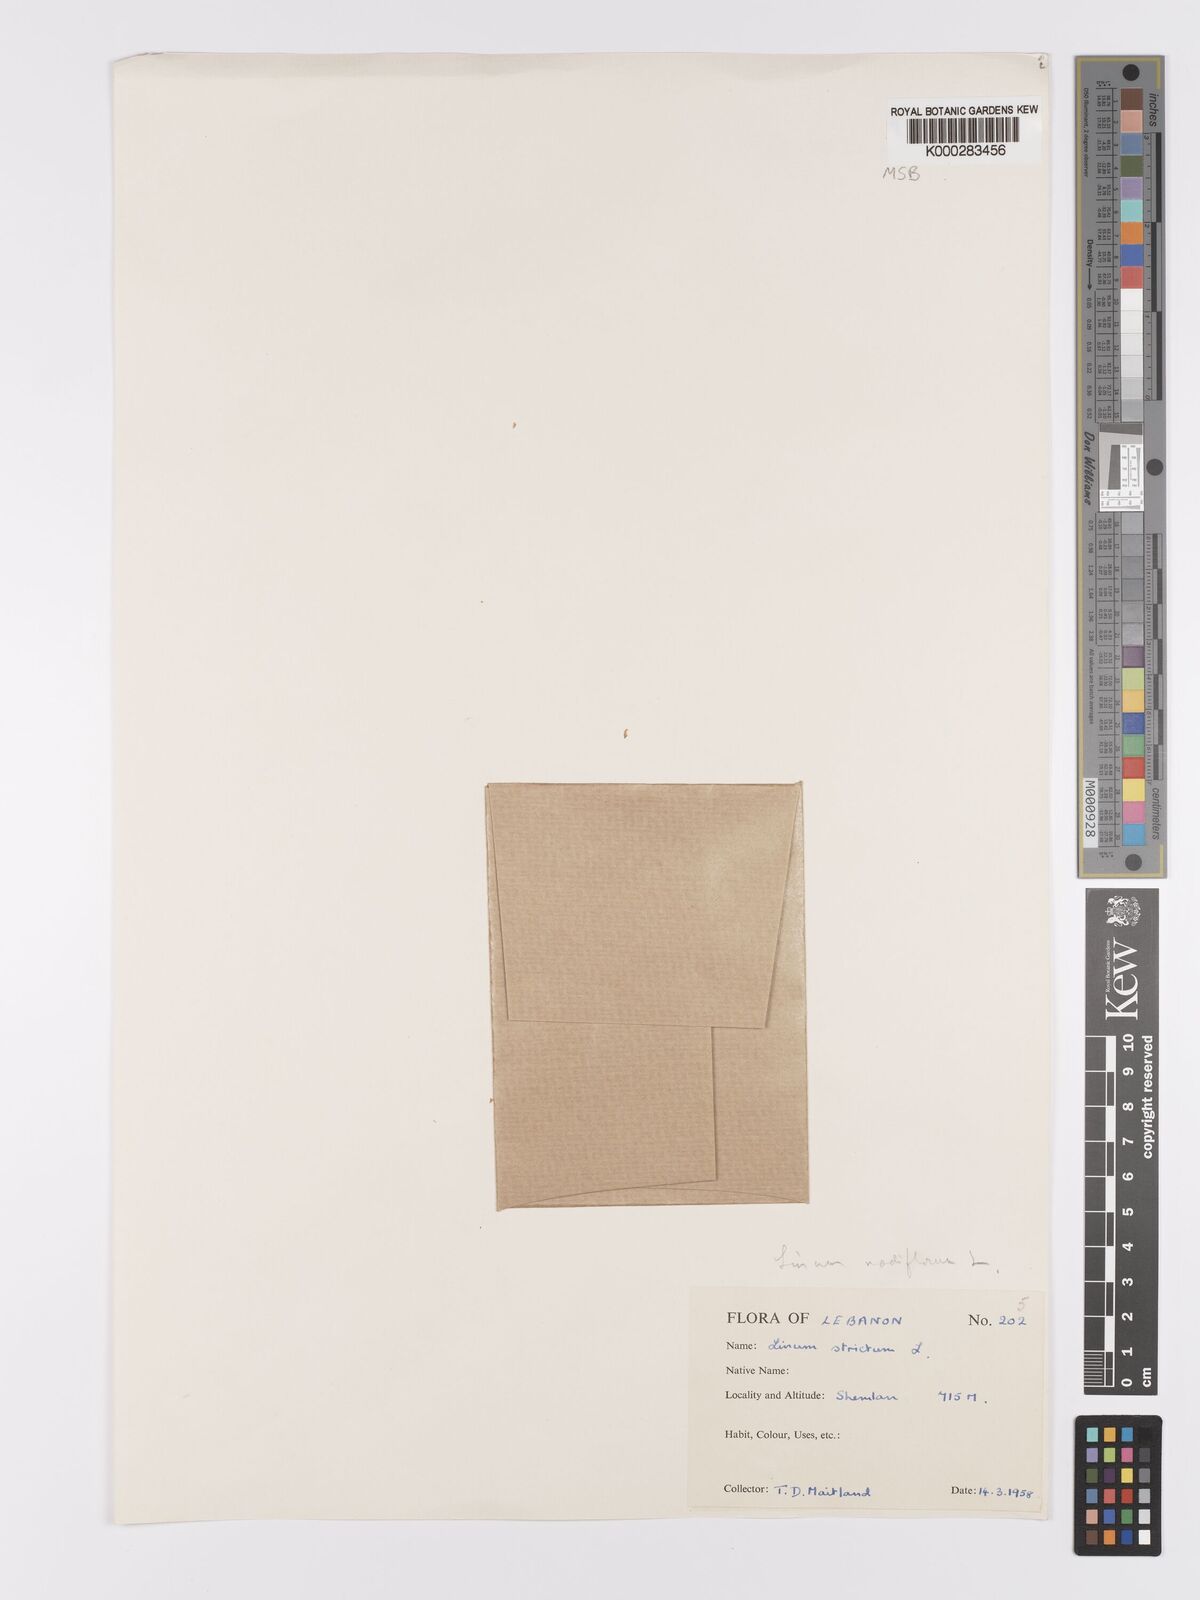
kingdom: Plantae
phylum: Tracheophyta
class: Magnoliopsida
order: Malpighiales
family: Linaceae
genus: Linum
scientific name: Linum strictum
